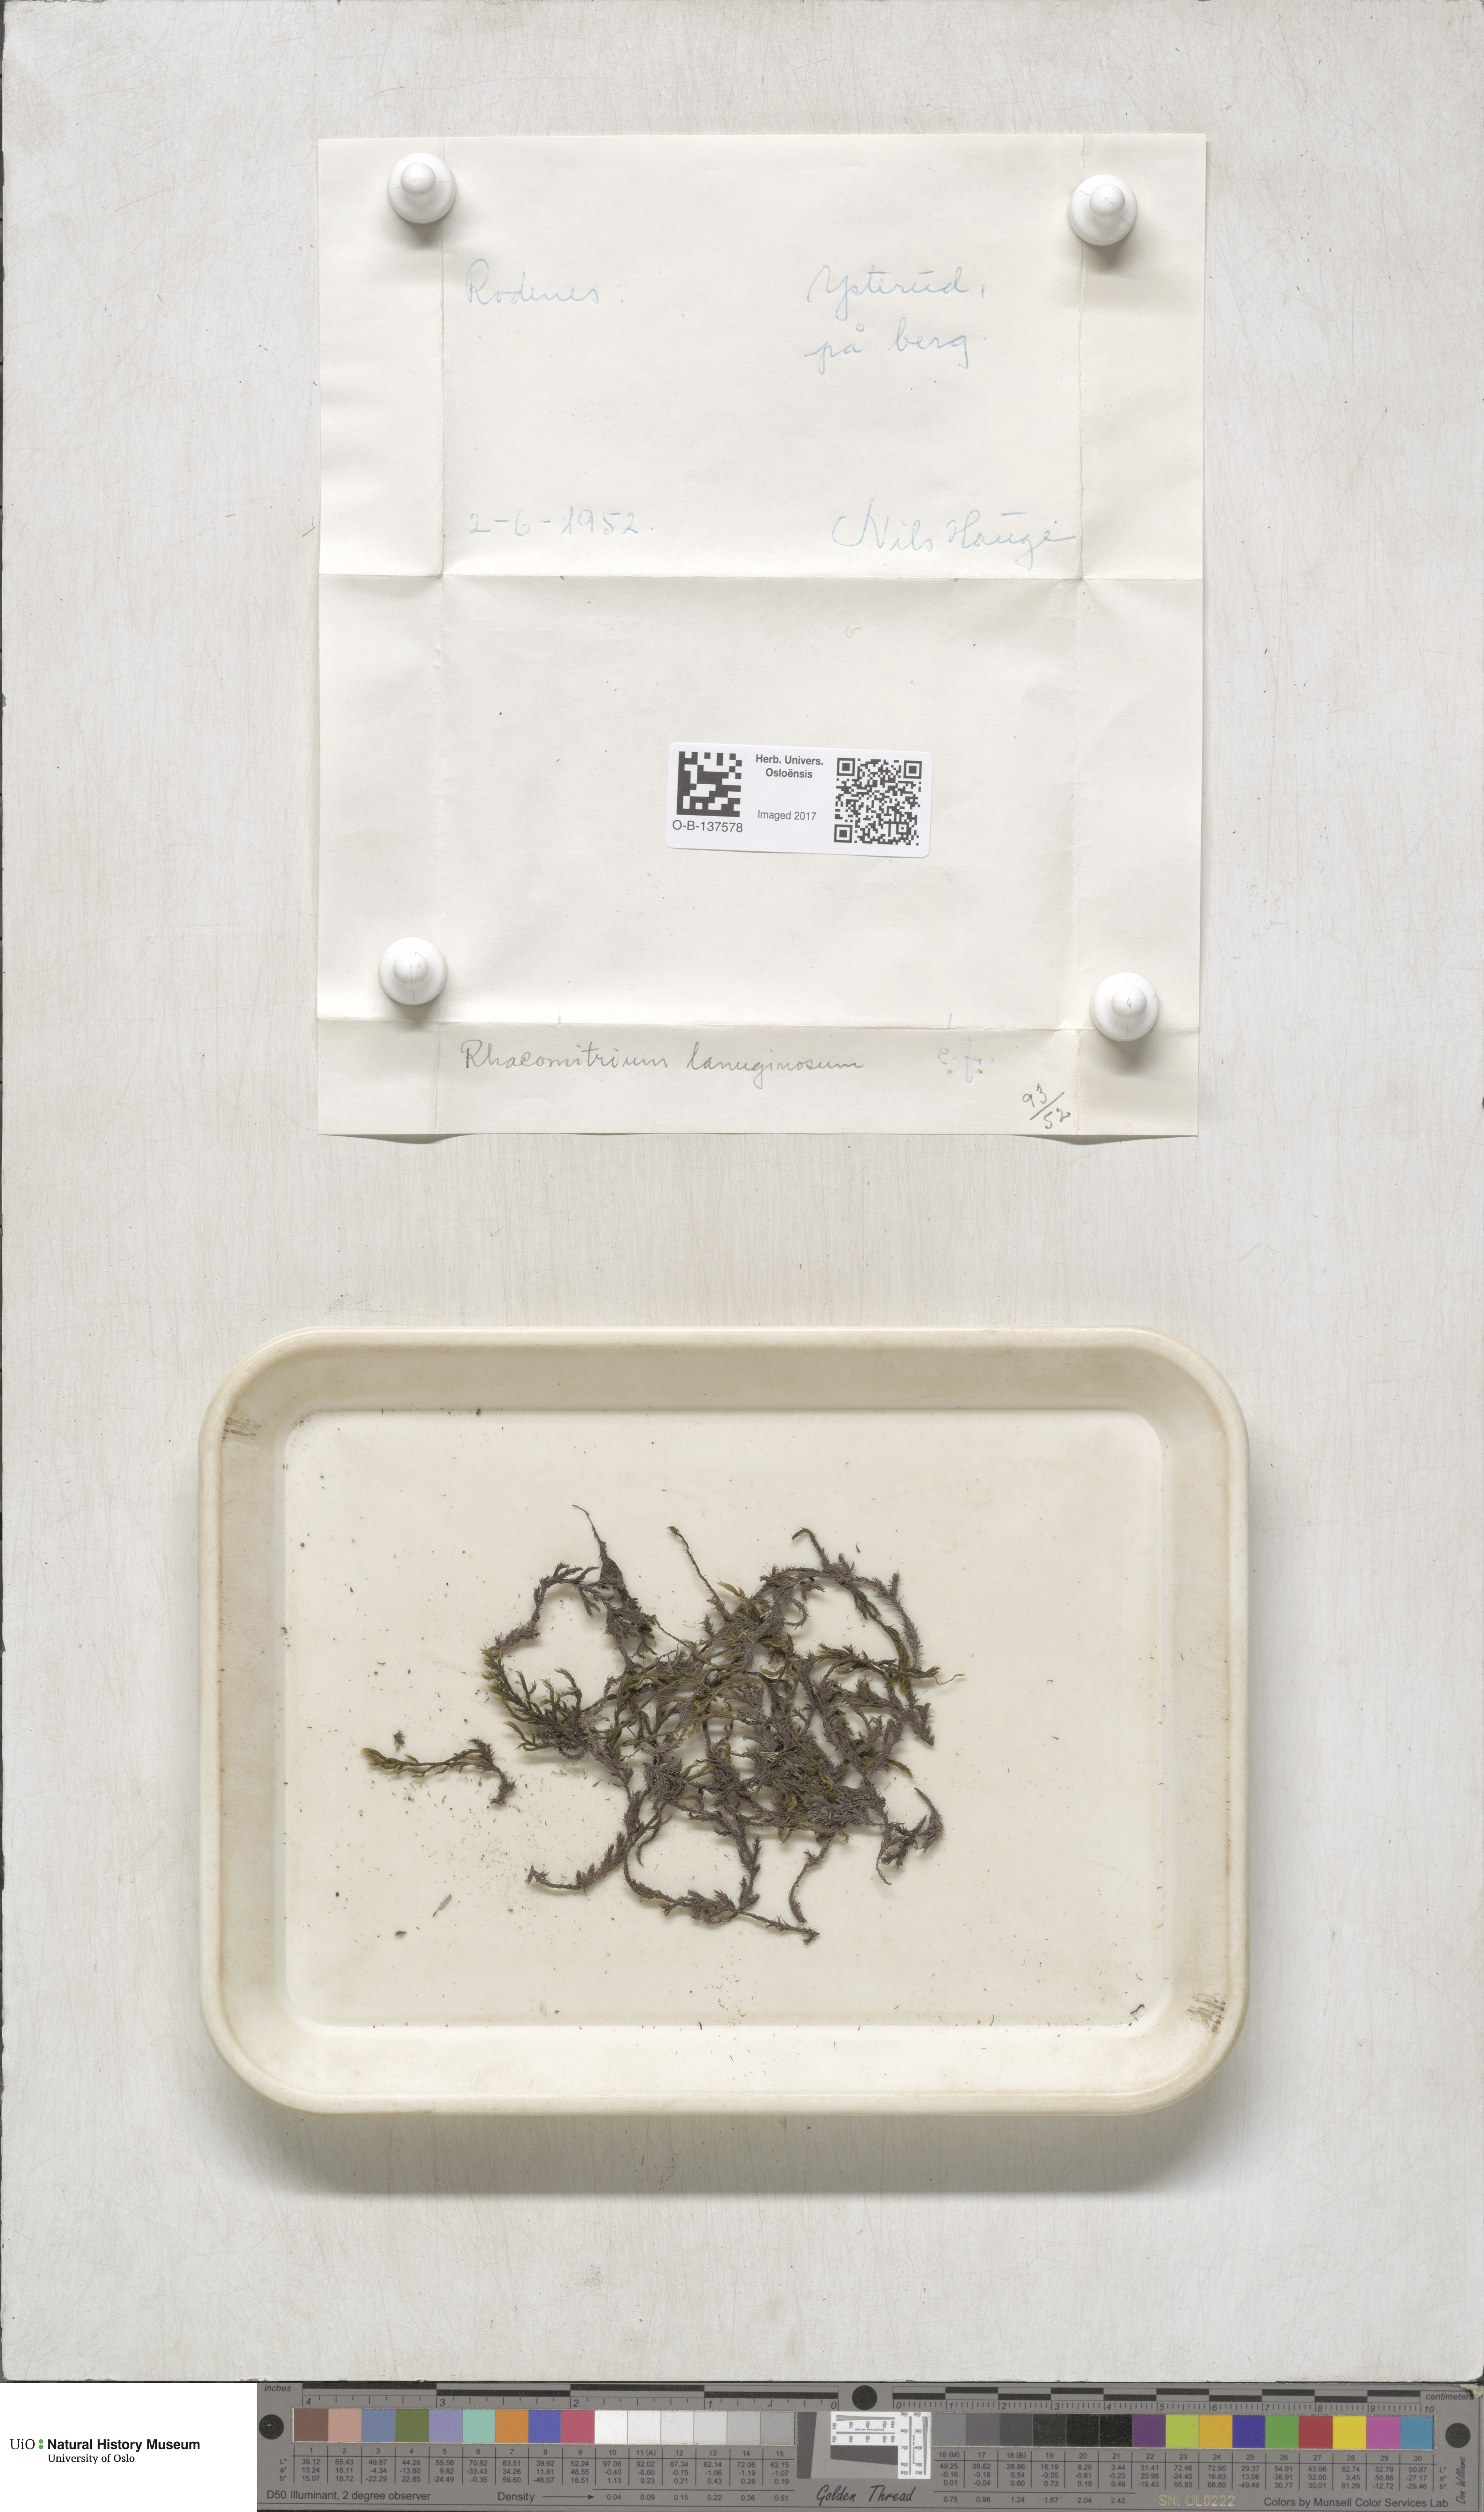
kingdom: Plantae
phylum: Bryophyta
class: Bryopsida
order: Grimmiales
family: Grimmiaceae
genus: Racomitrium
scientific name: Racomitrium lanuginosum
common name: Hoary rock moss
